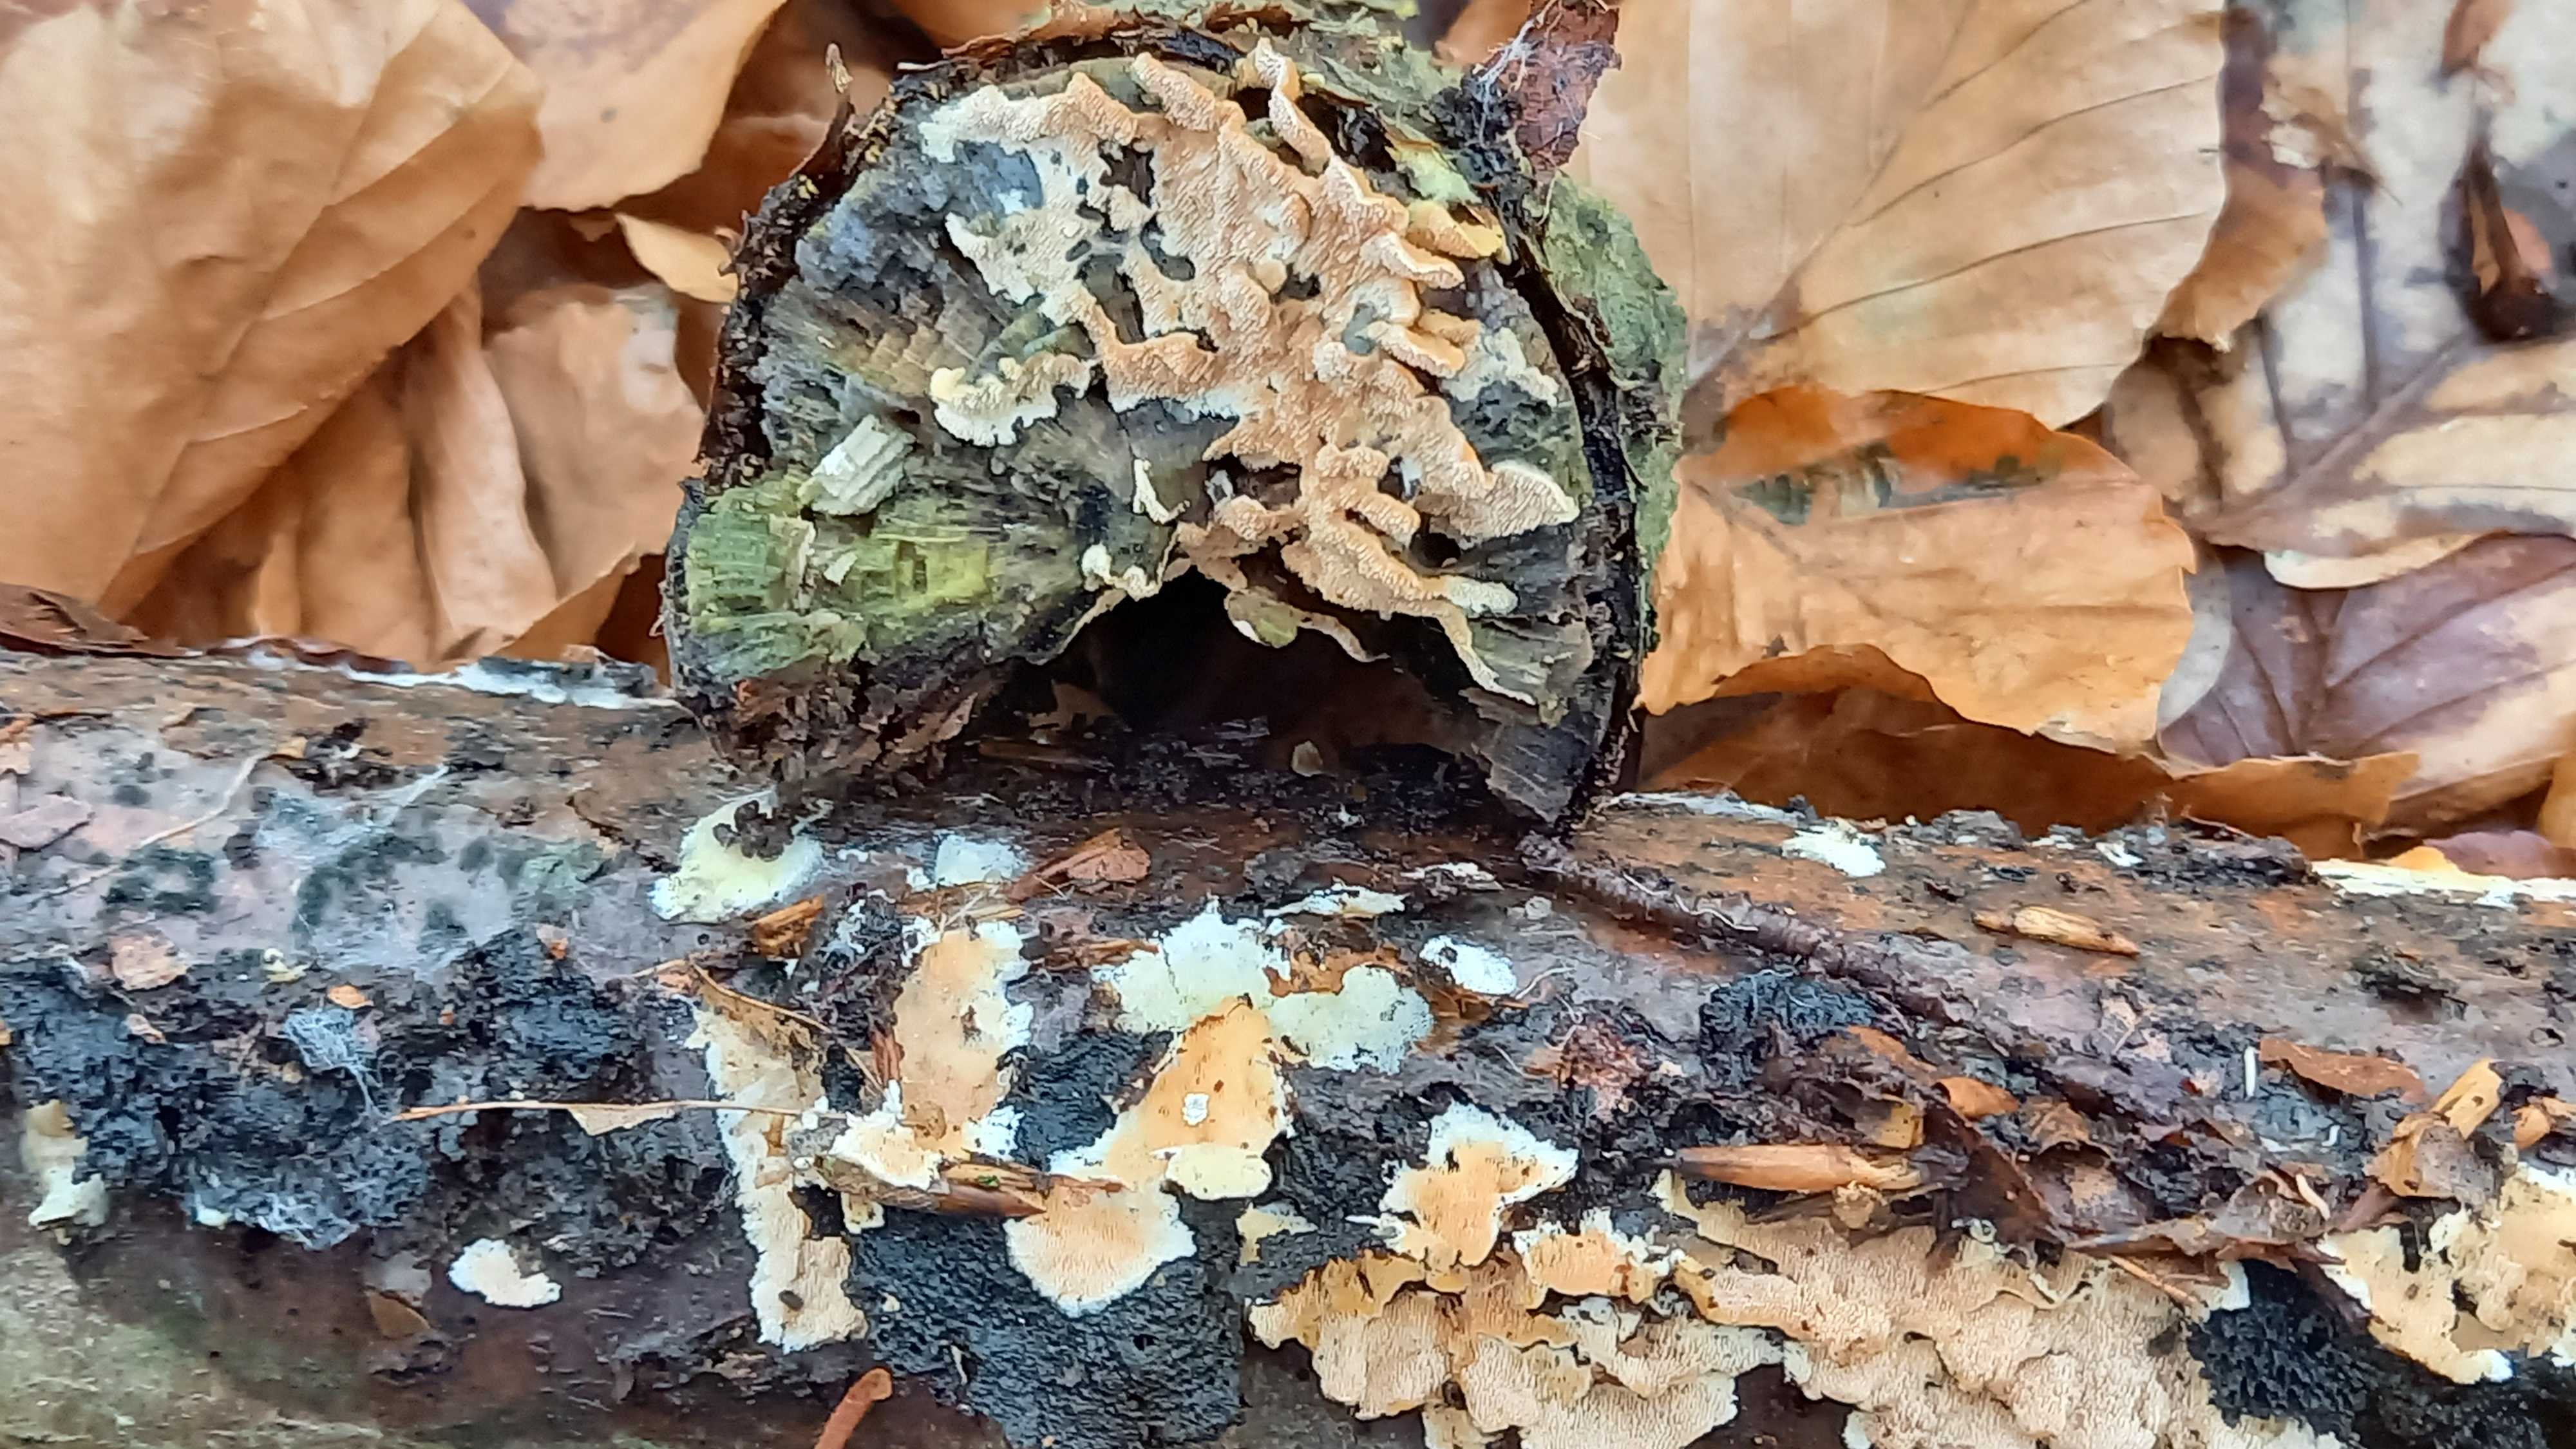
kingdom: Fungi
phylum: Basidiomycota
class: Agaricomycetes
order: Polyporales
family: Steccherinaceae
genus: Steccherinum
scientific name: Steccherinum
